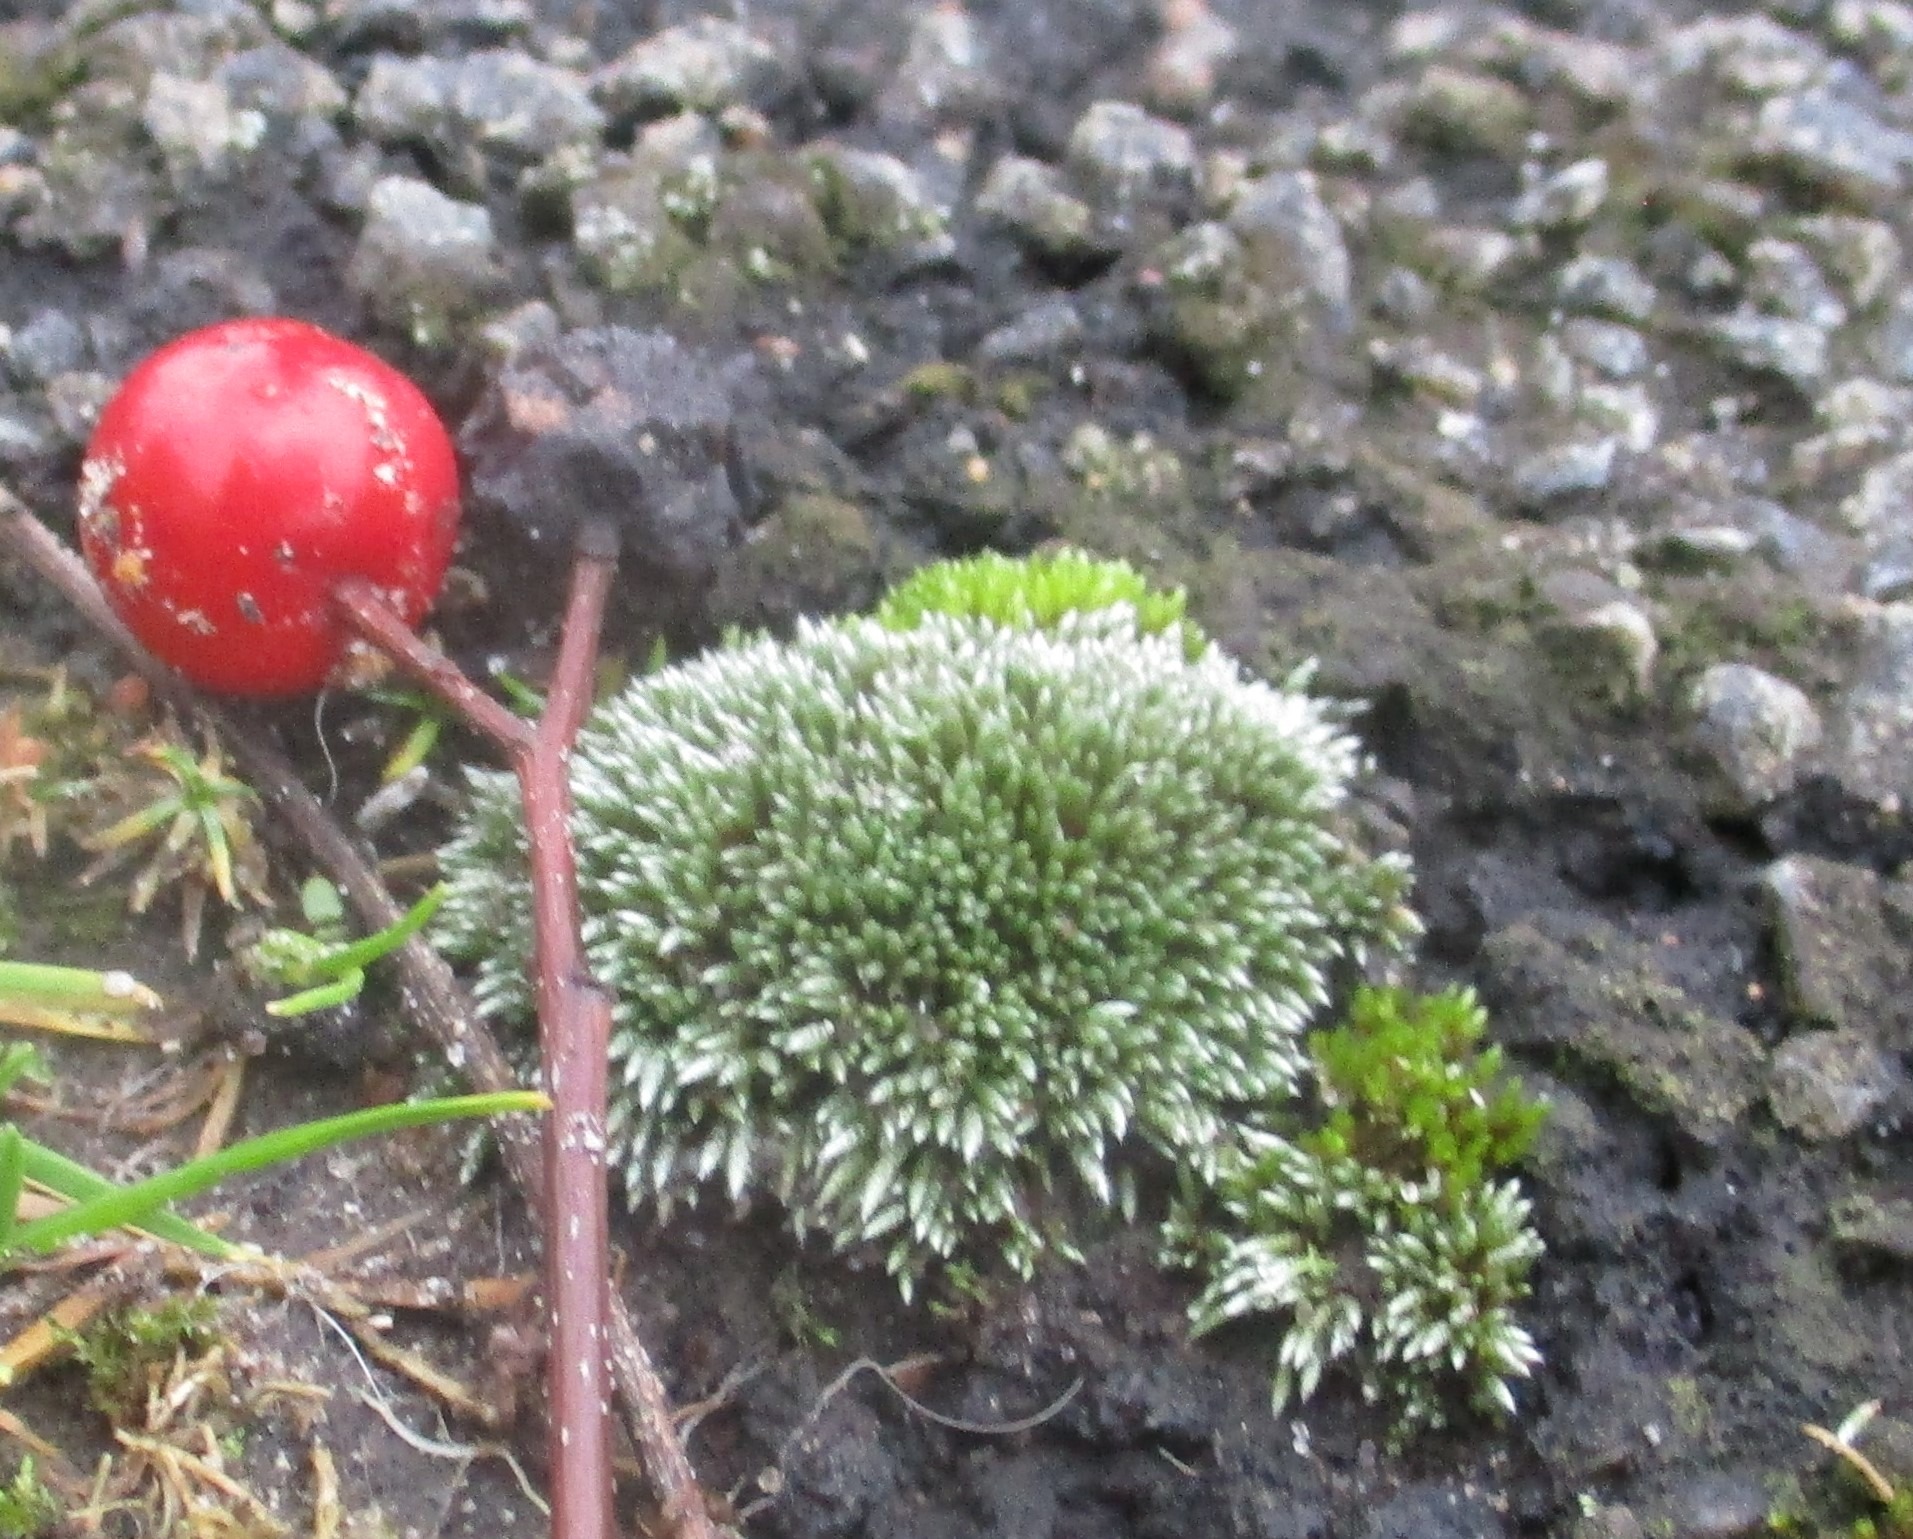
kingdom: Plantae
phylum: Bryophyta
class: Bryopsida
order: Bryales
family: Bryaceae
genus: Bryum
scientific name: Bryum argenteum
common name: Sølv-bryum
